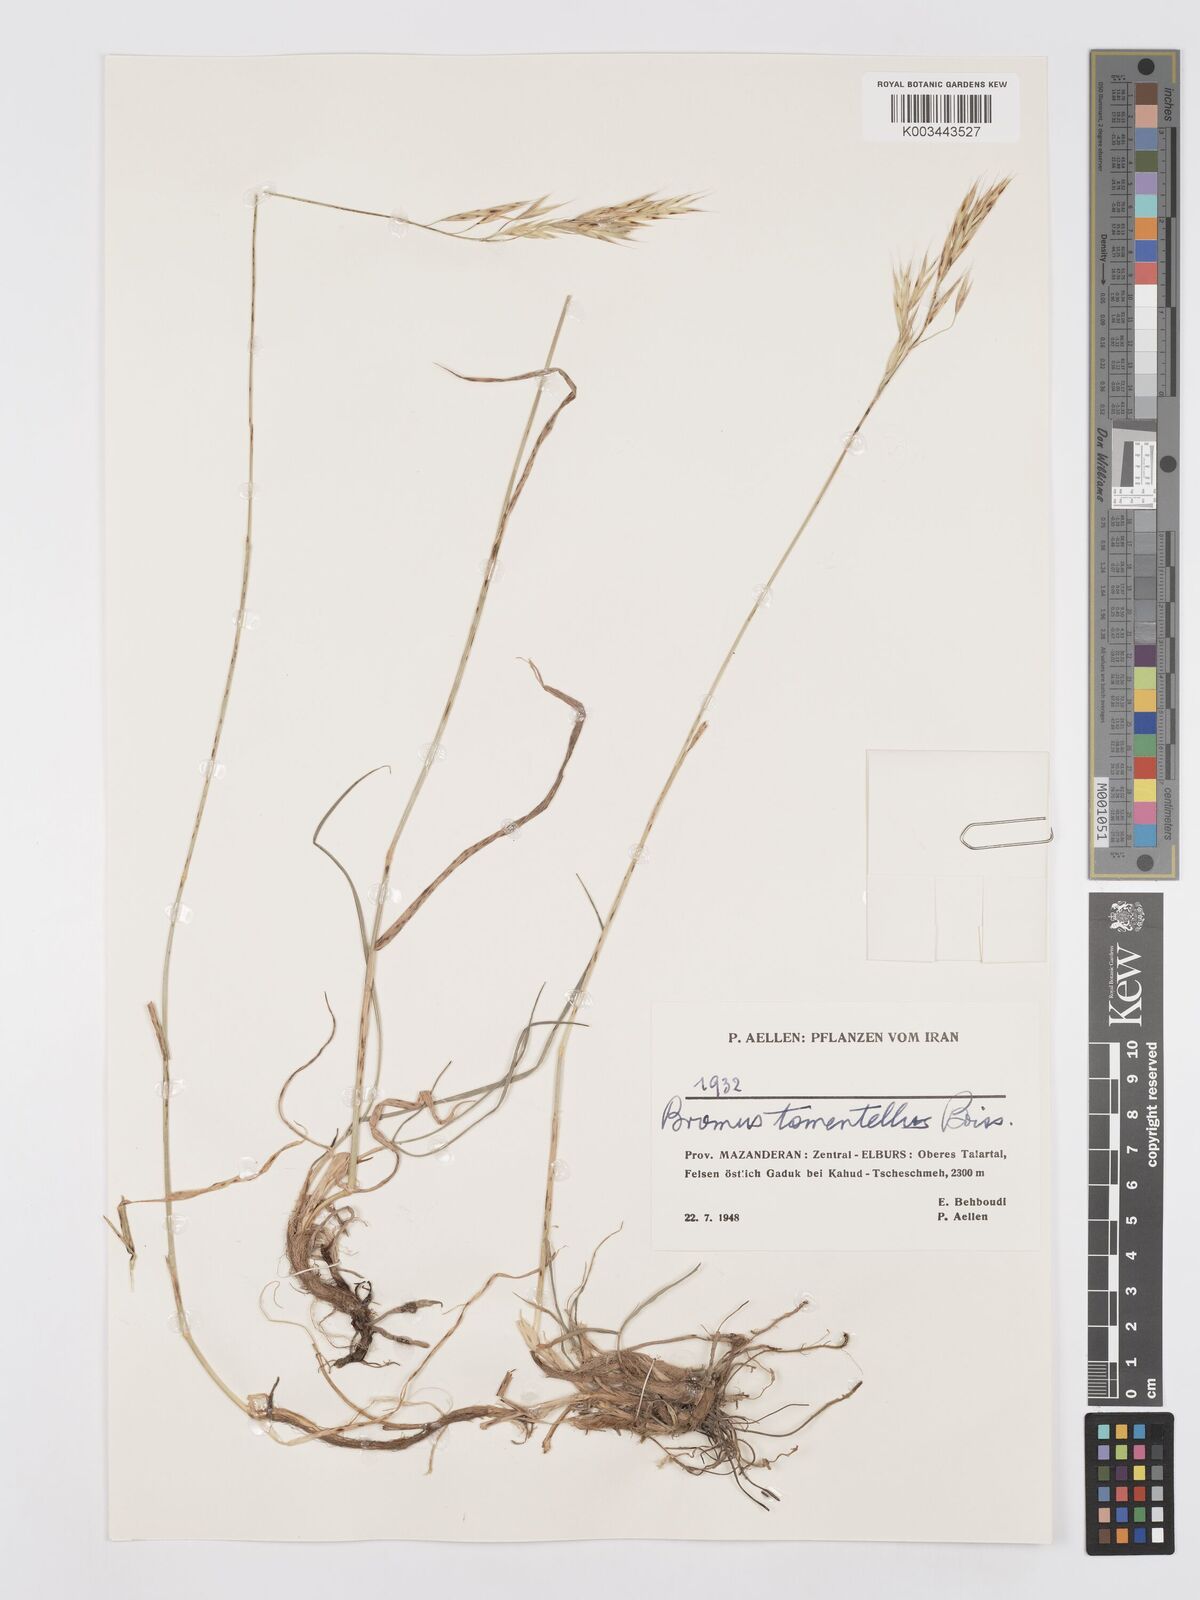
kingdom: Plantae
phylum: Tracheophyta
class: Liliopsida
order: Poales
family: Poaceae
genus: Bromus
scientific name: Bromus tomentellus
